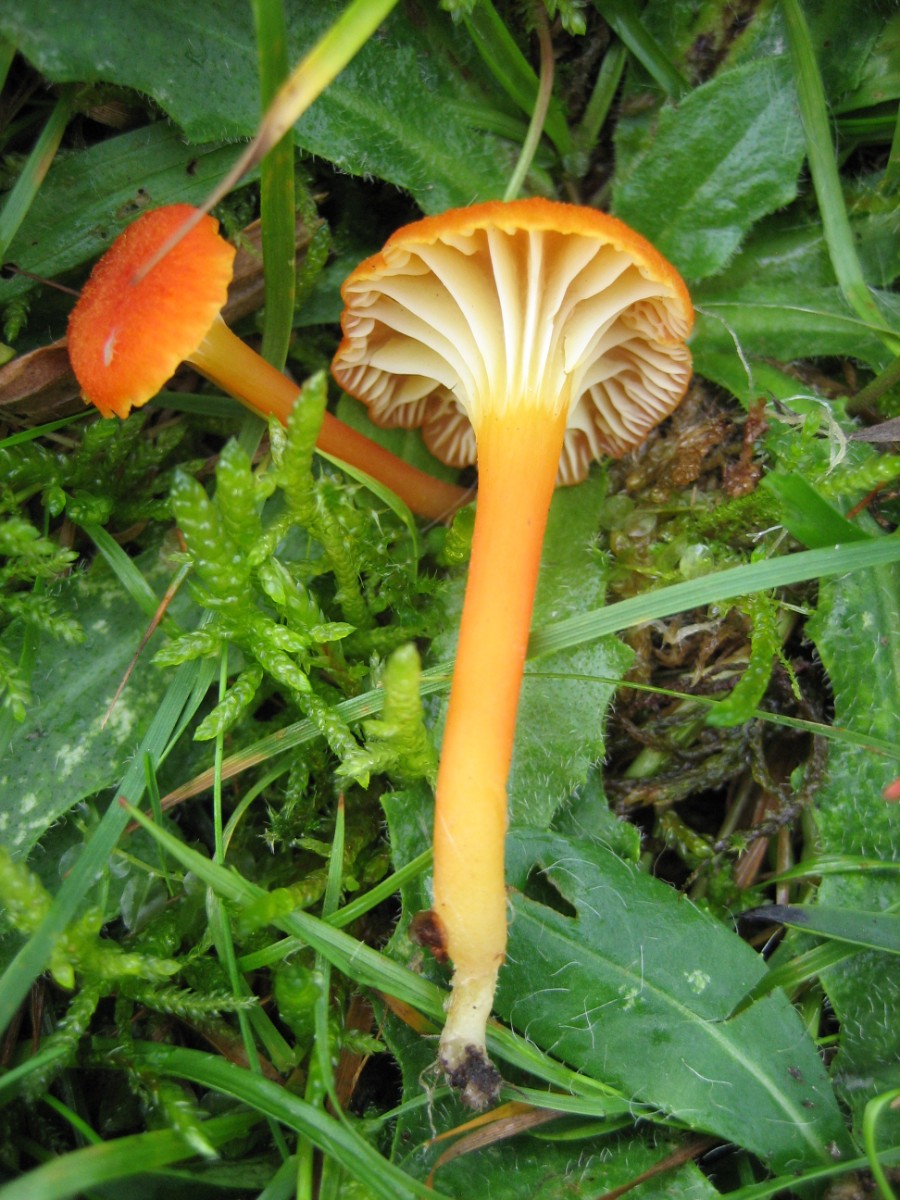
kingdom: Fungi
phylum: Basidiomycota
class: Agaricomycetes
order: Agaricales
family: Hygrophoraceae
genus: Hygrocybe
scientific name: Hygrocybe cantharellus
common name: kantarel-vokshat
